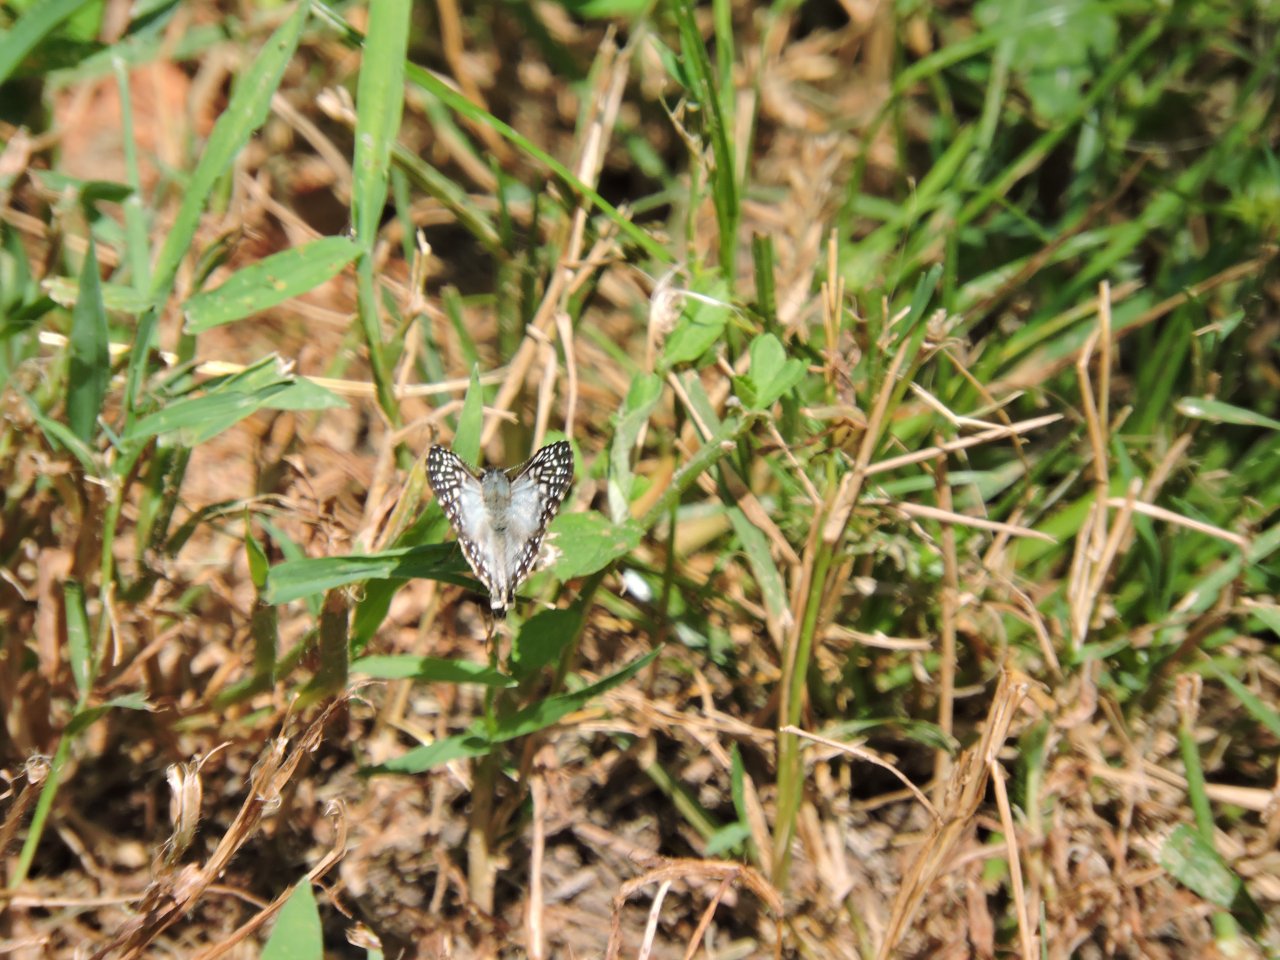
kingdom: Animalia
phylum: Arthropoda
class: Insecta
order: Lepidoptera
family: Hesperiidae
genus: Pyrgus
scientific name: Pyrgus oileus
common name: Tropical Checkered-Skipper
